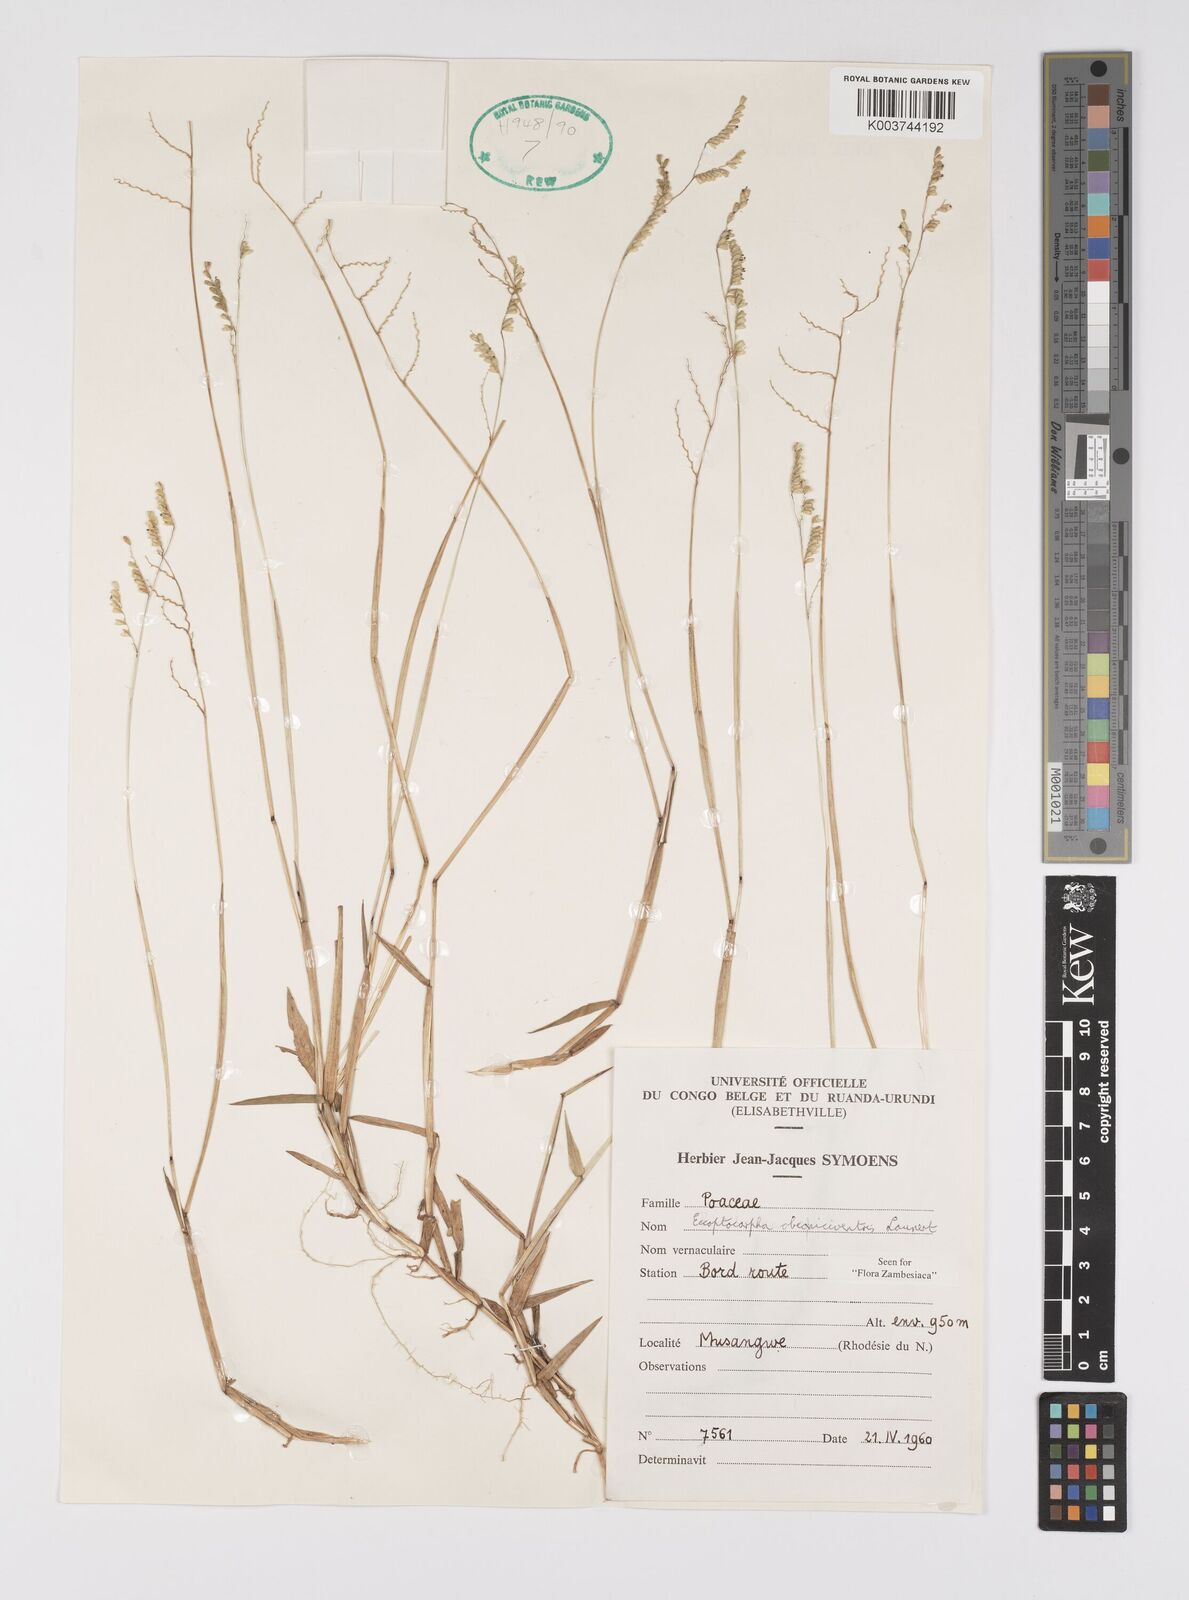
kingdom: Plantae
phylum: Tracheophyta
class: Liliopsida
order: Poales
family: Poaceae
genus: Eccoptocarpha
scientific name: Eccoptocarpha obconiciventris
